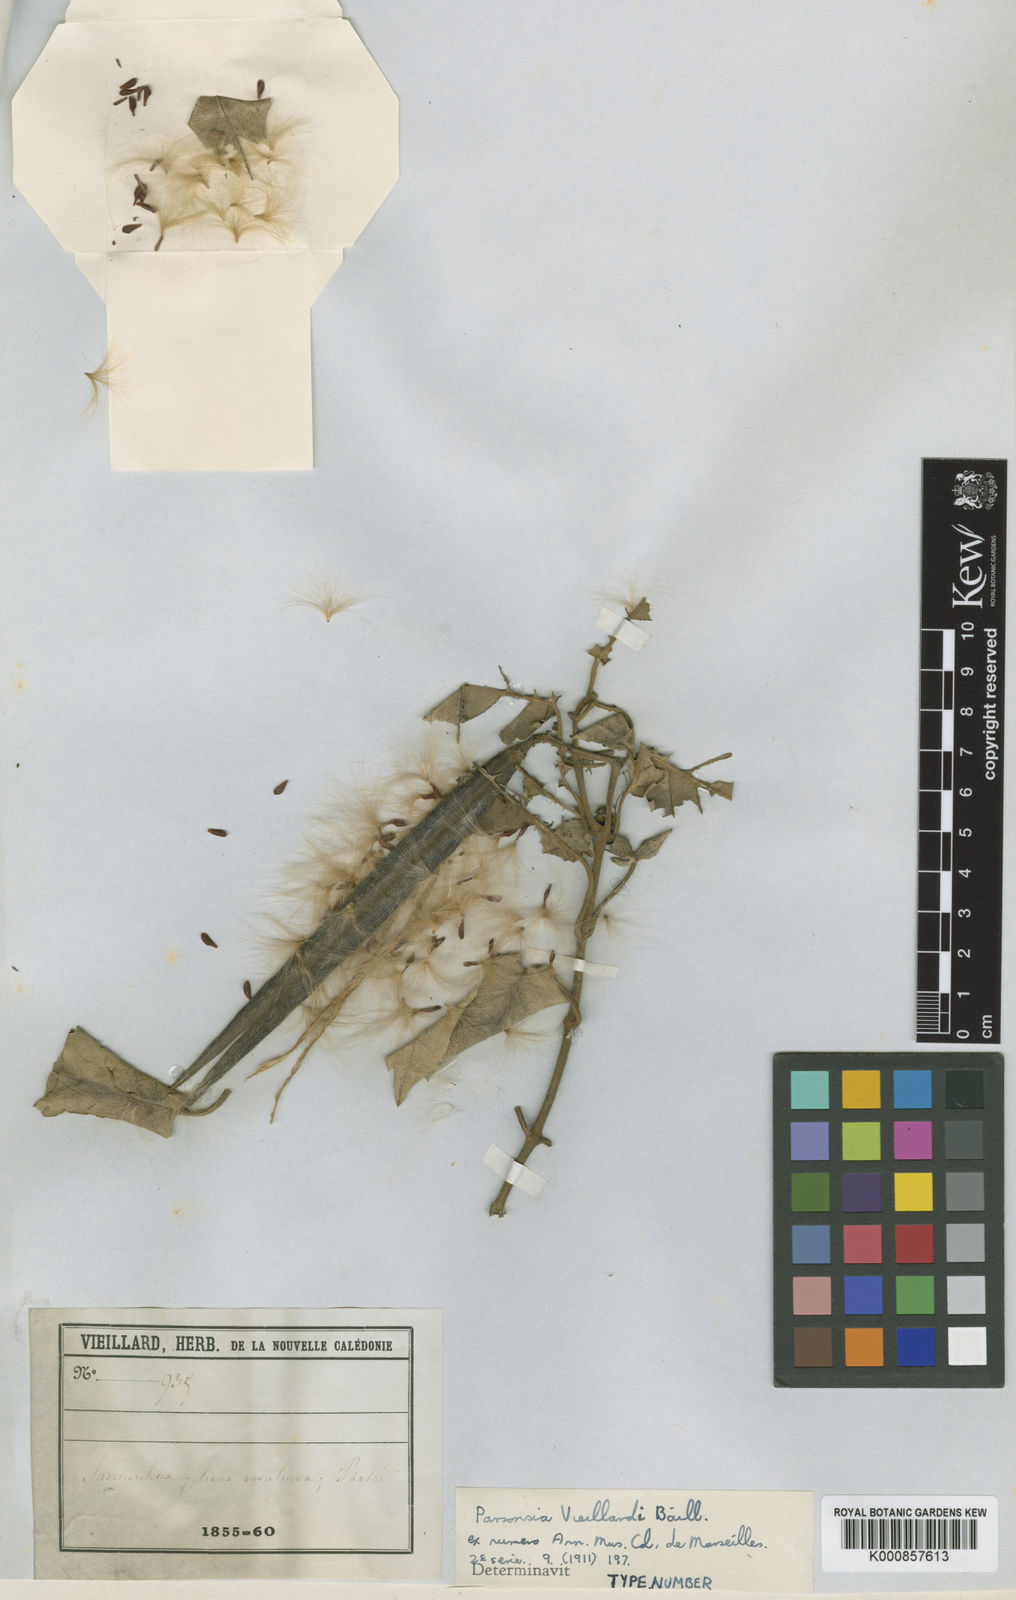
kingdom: Plantae
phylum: Tracheophyta
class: Magnoliopsida
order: Gentianales
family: Apocynaceae
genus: Parsonsia
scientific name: Parsonsia catalpicarpa
